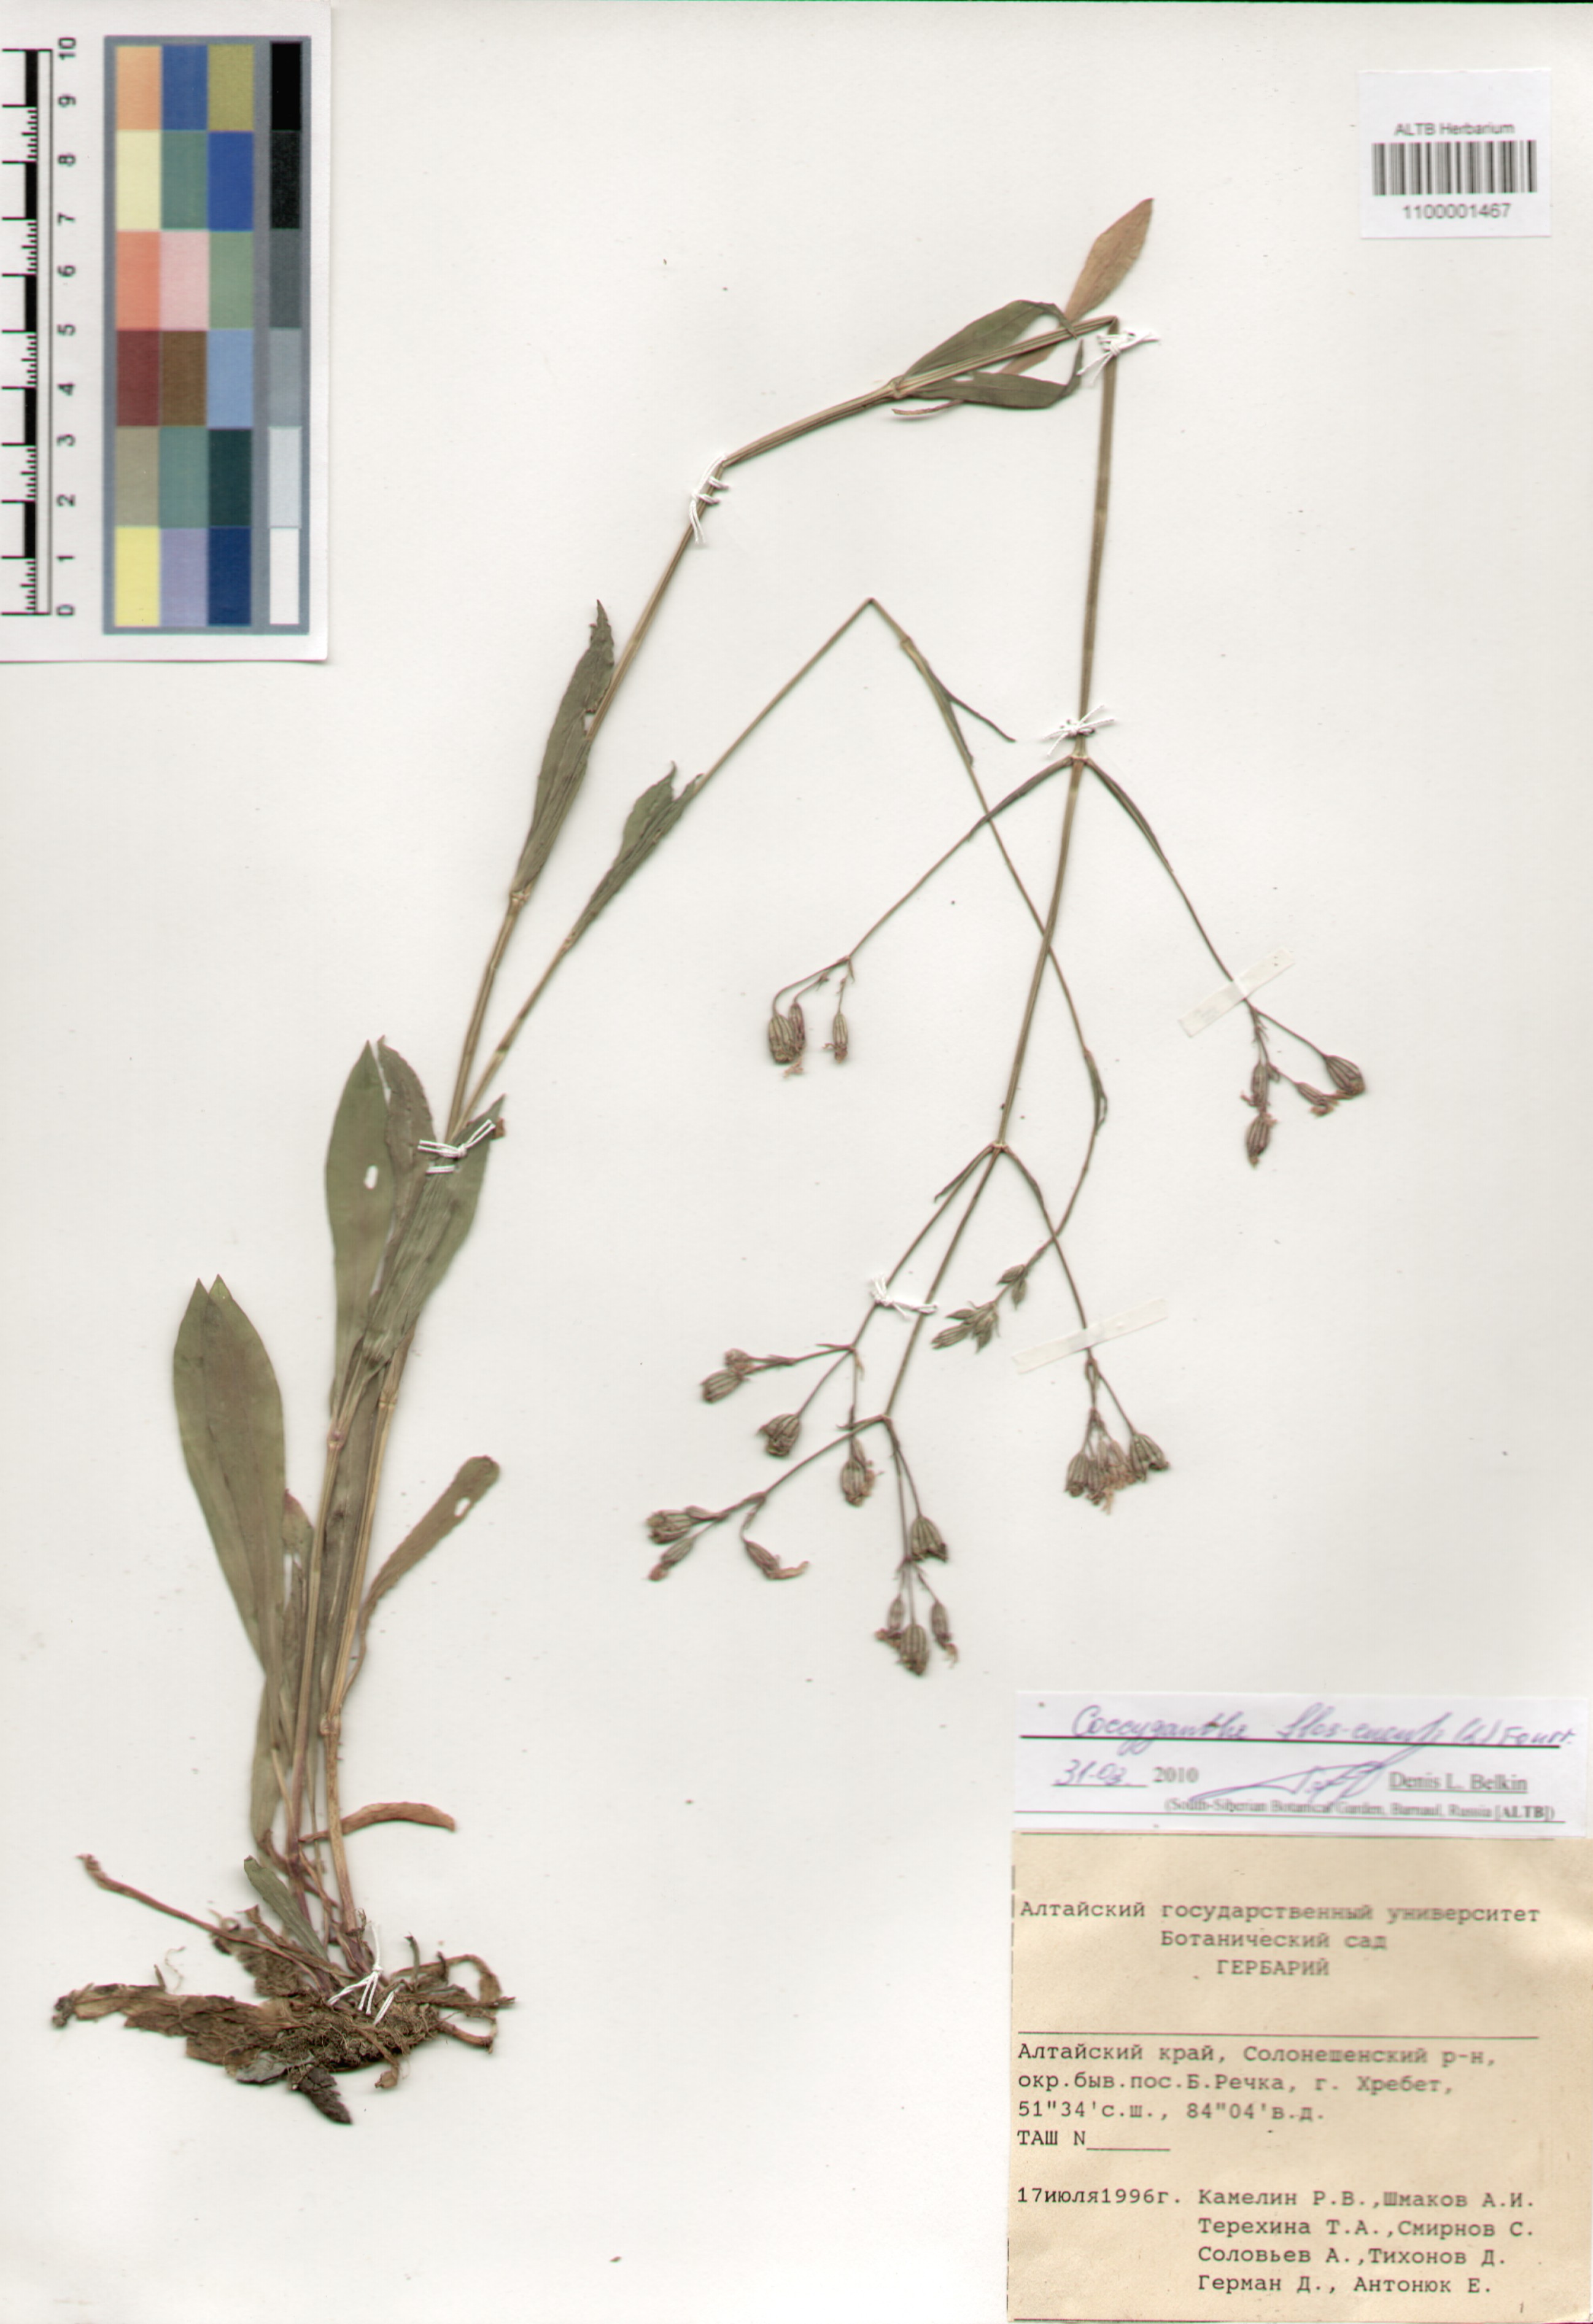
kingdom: Plantae
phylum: Tracheophyta
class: Magnoliopsida
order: Caryophyllales
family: Caryophyllaceae
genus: Silene
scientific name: Silene flos-cuculi
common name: Ragged-robin
